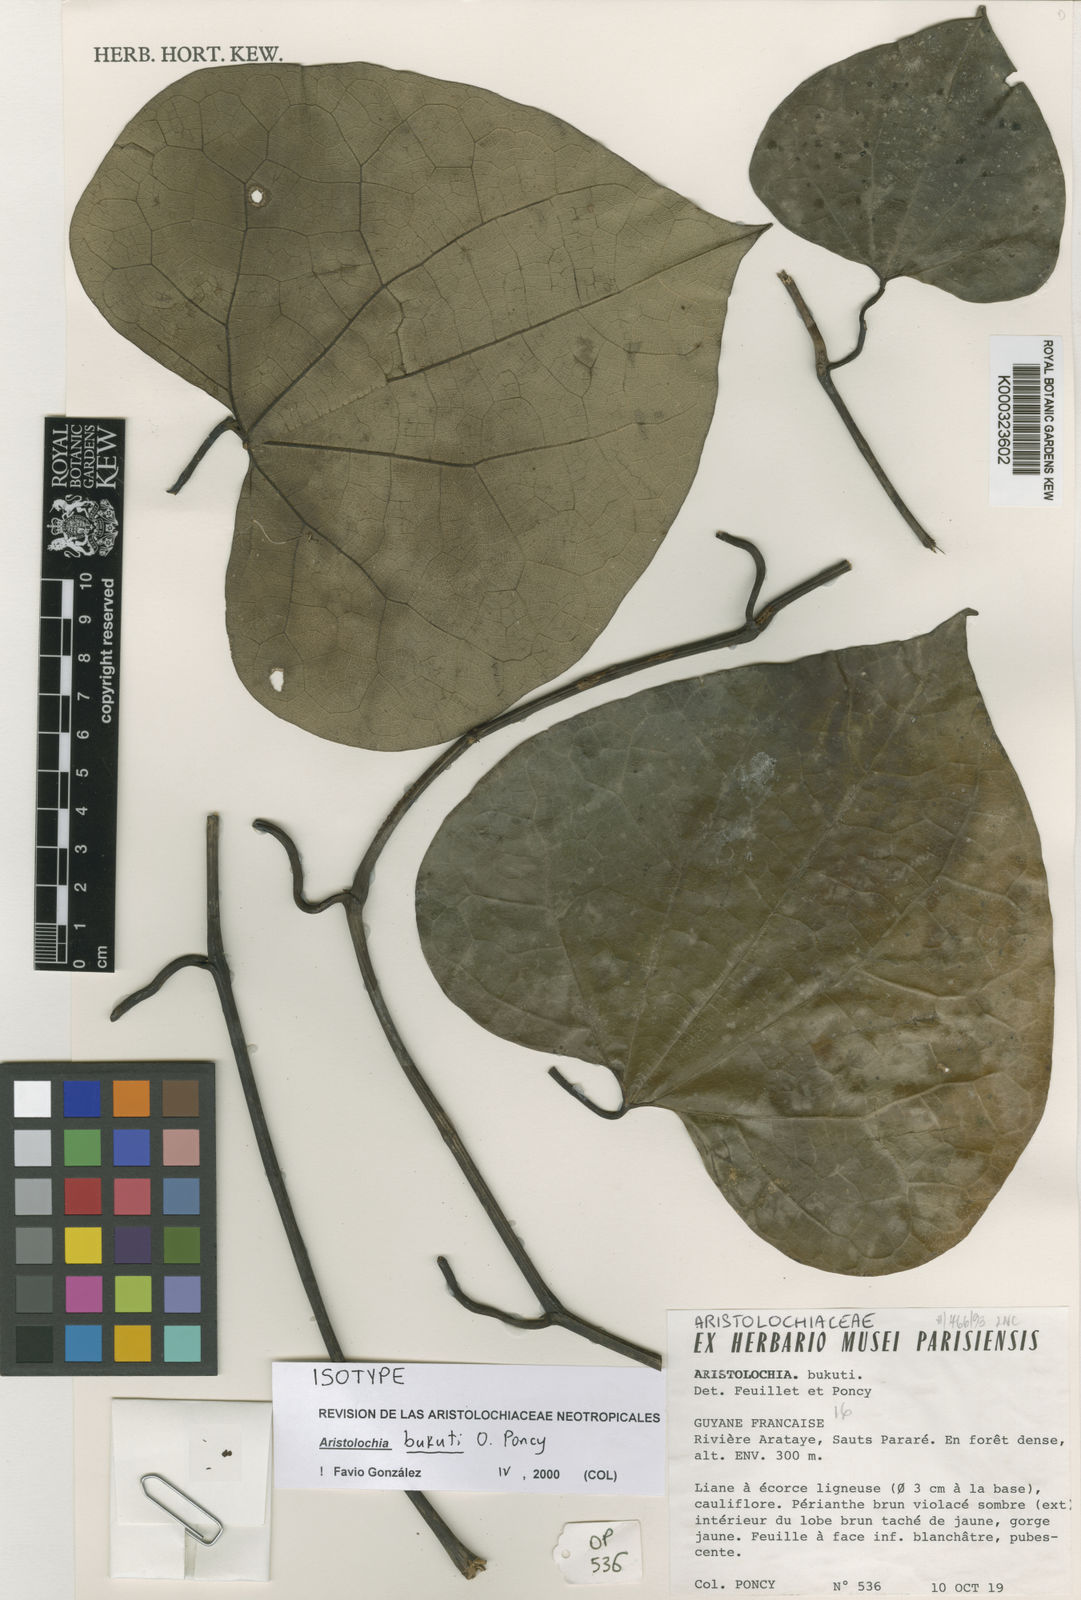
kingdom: Plantae
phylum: Tracheophyta
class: Magnoliopsida
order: Piperales
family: Aristolochiaceae
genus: Aristolochia
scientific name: Aristolochia bukuti
